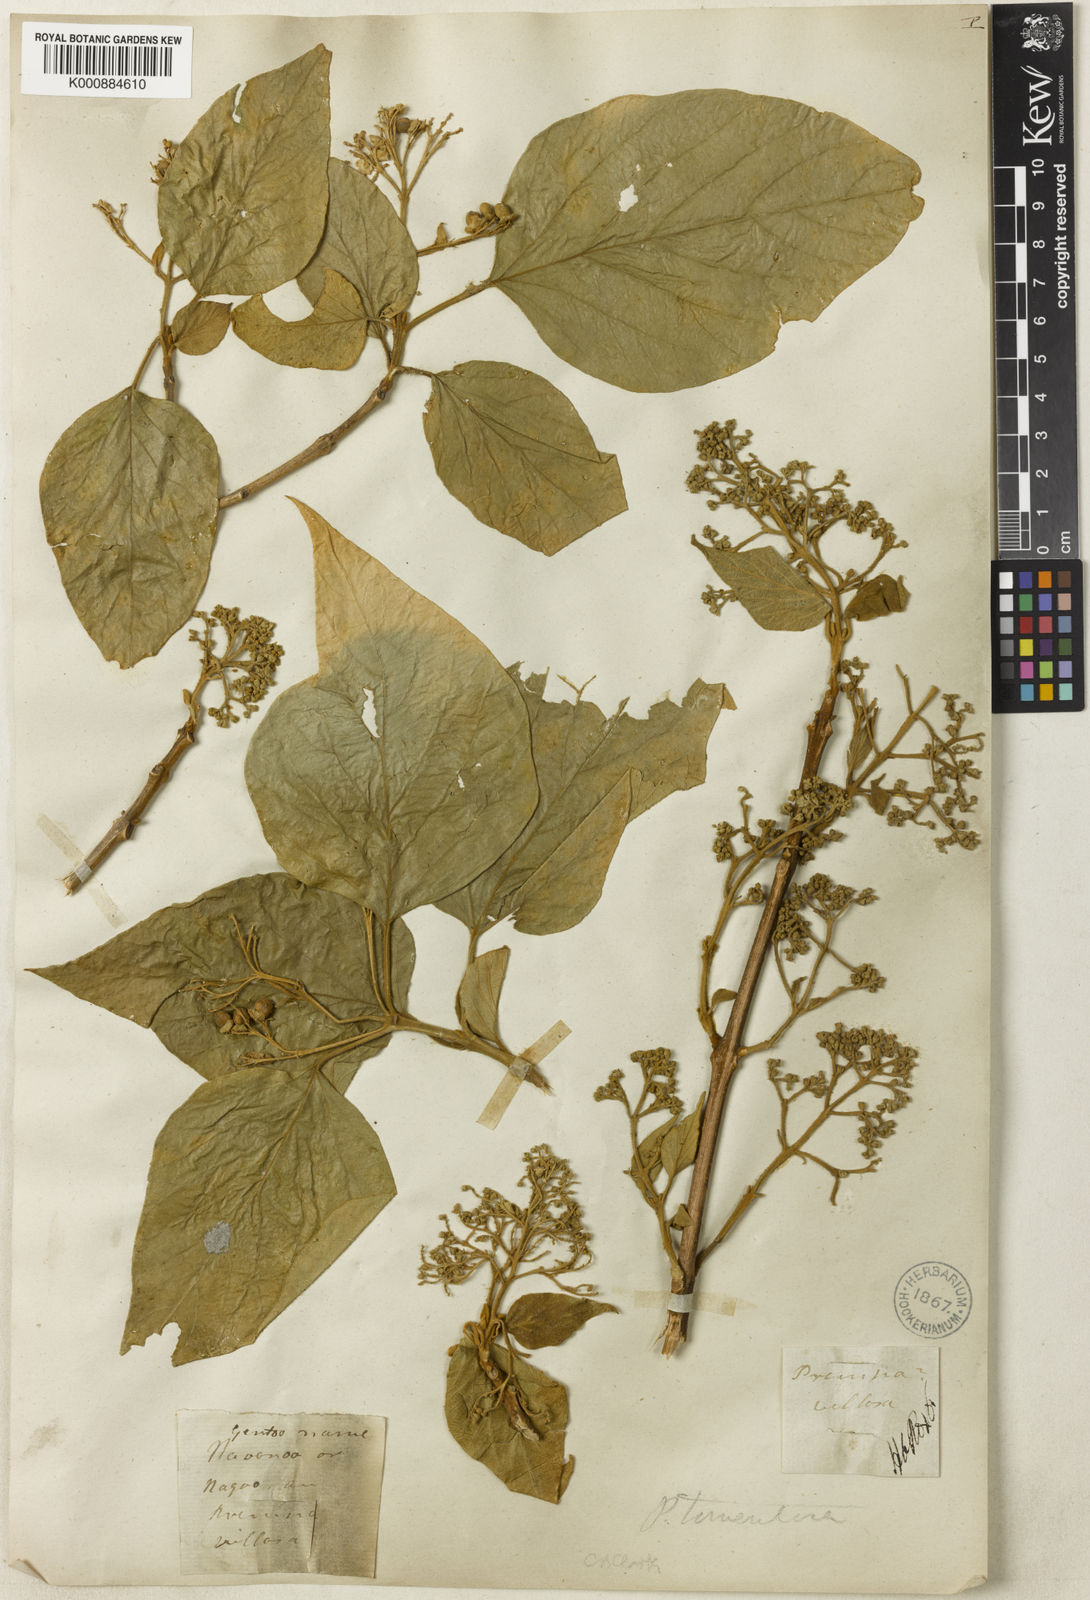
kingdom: Plantae
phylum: Tracheophyta
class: Magnoliopsida
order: Lamiales
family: Lamiaceae
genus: Premna
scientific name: Premna tomentosa
